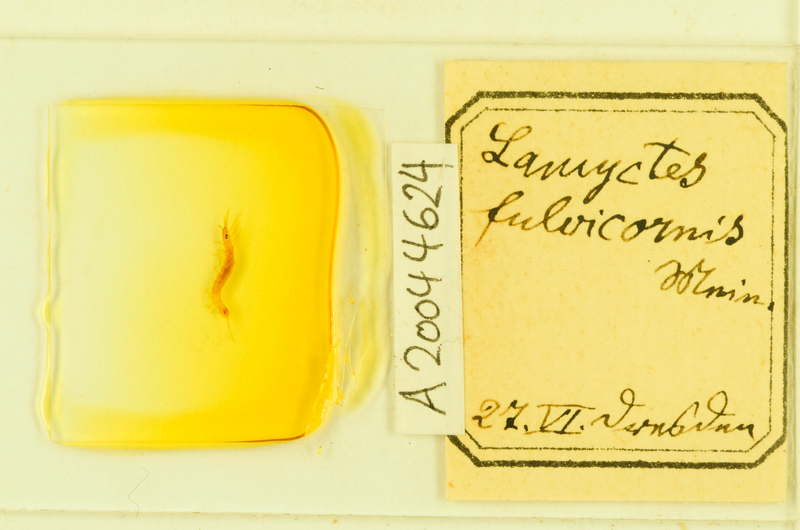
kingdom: Animalia
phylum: Arthropoda
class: Chilopoda
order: Lithobiomorpha
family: Henicopidae
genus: Lamyctes
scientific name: Lamyctes emarginatus
